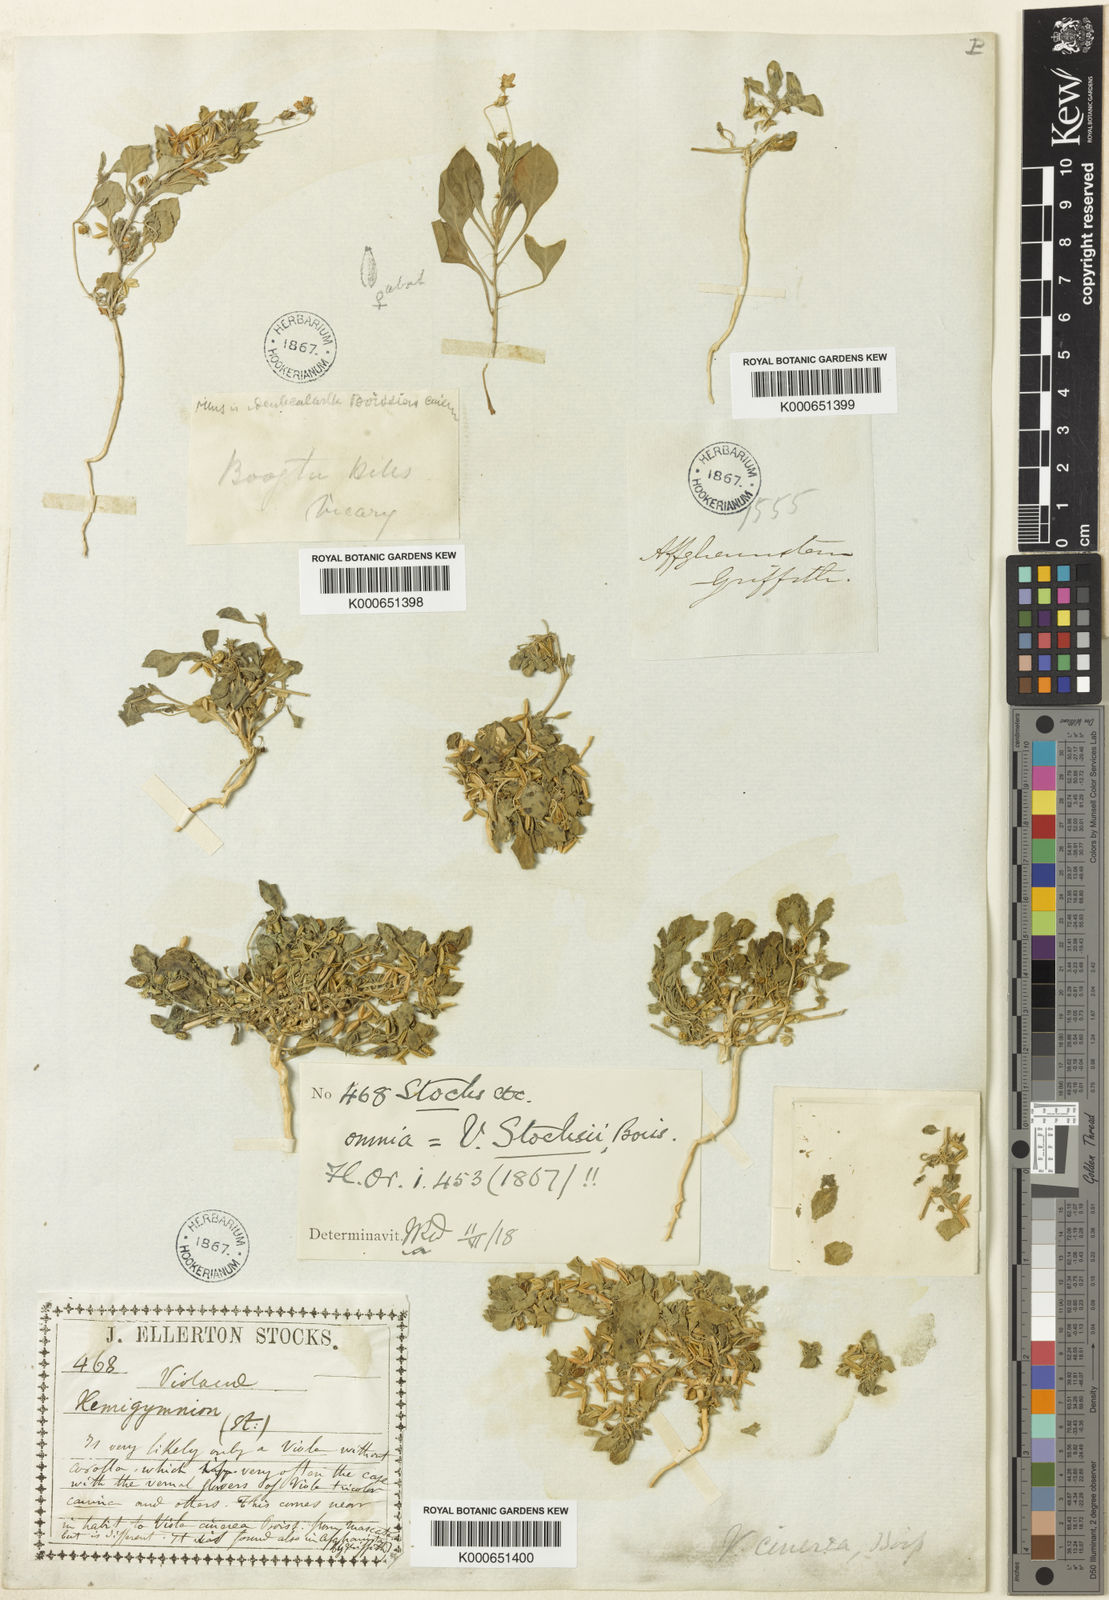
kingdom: Plantae
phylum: Tracheophyta
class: Magnoliopsida
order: Malpighiales
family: Violaceae
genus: Viola
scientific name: Viola cinerea
